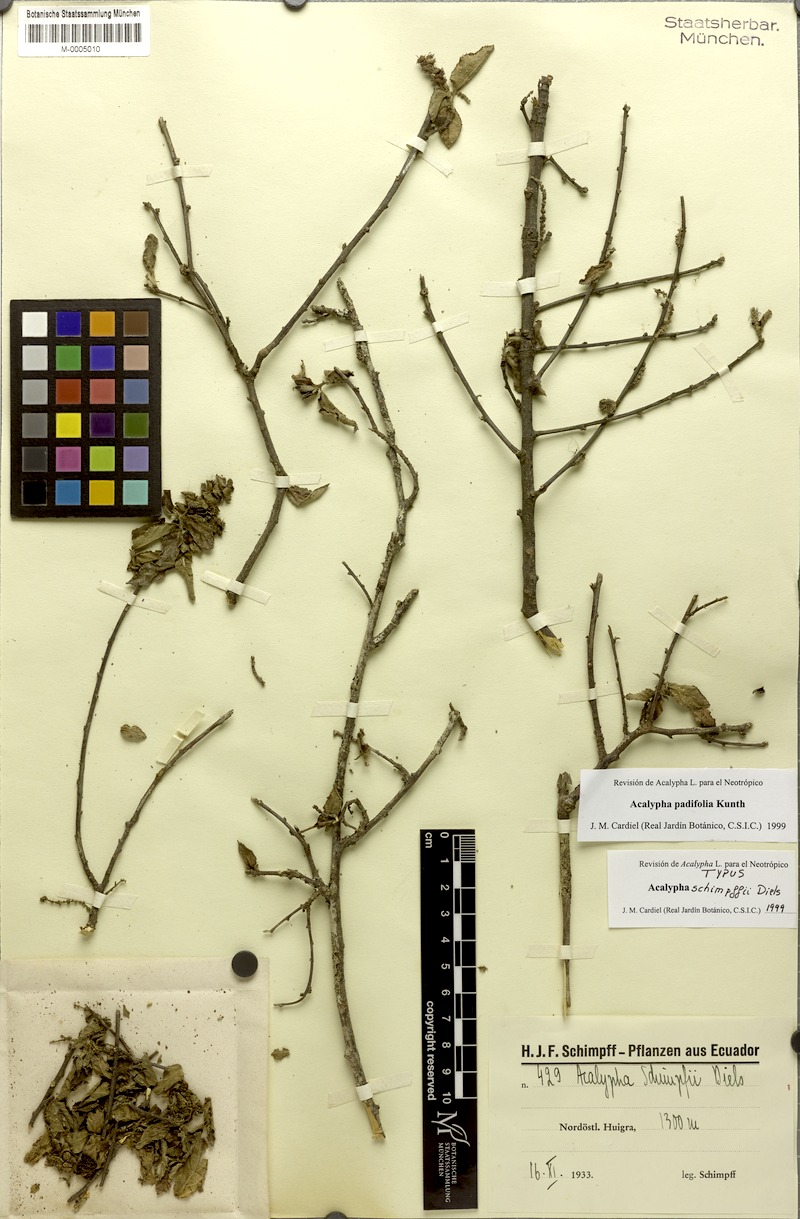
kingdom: Plantae
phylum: Tracheophyta
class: Magnoliopsida
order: Malpighiales
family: Euphorbiaceae
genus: Acalypha
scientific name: Acalypha padifolia
